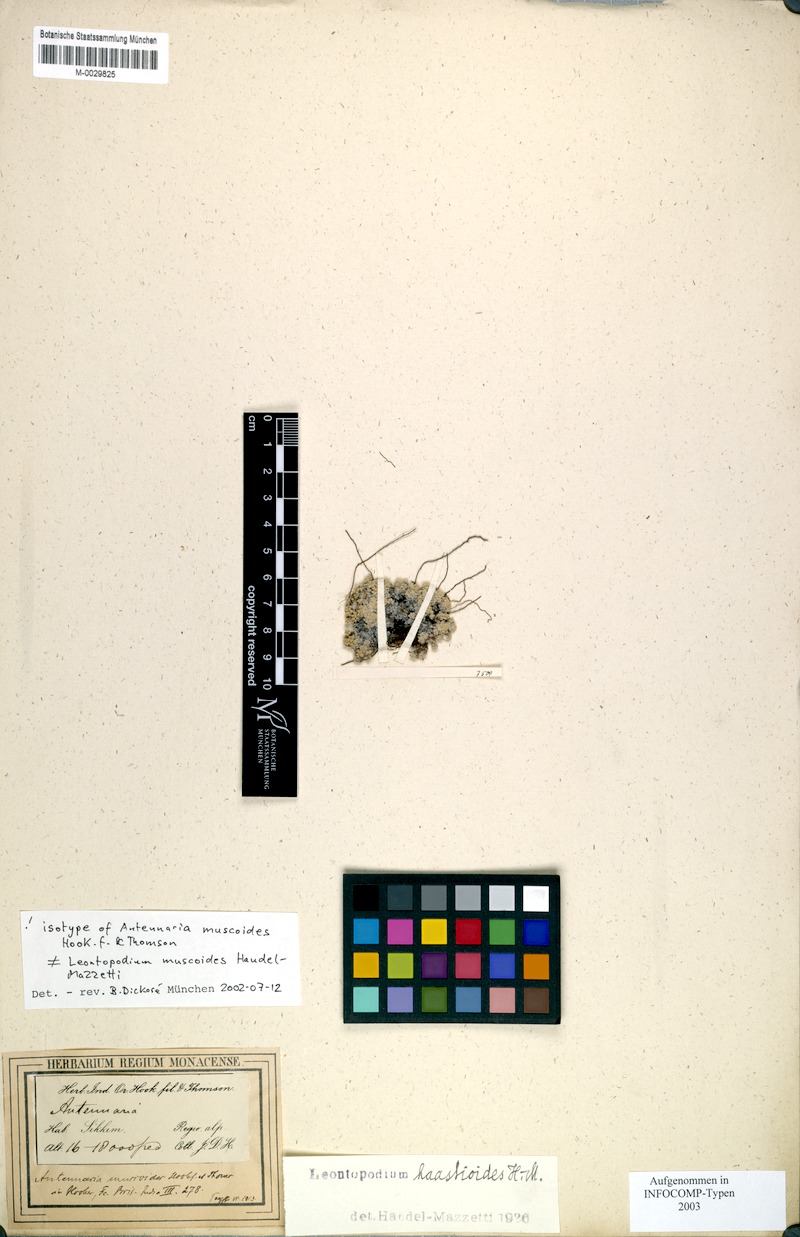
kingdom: Plantae
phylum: Tracheophyta
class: Magnoliopsida
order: Asterales
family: Asteraceae
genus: Leontopodium
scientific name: Leontopodium haastioides
